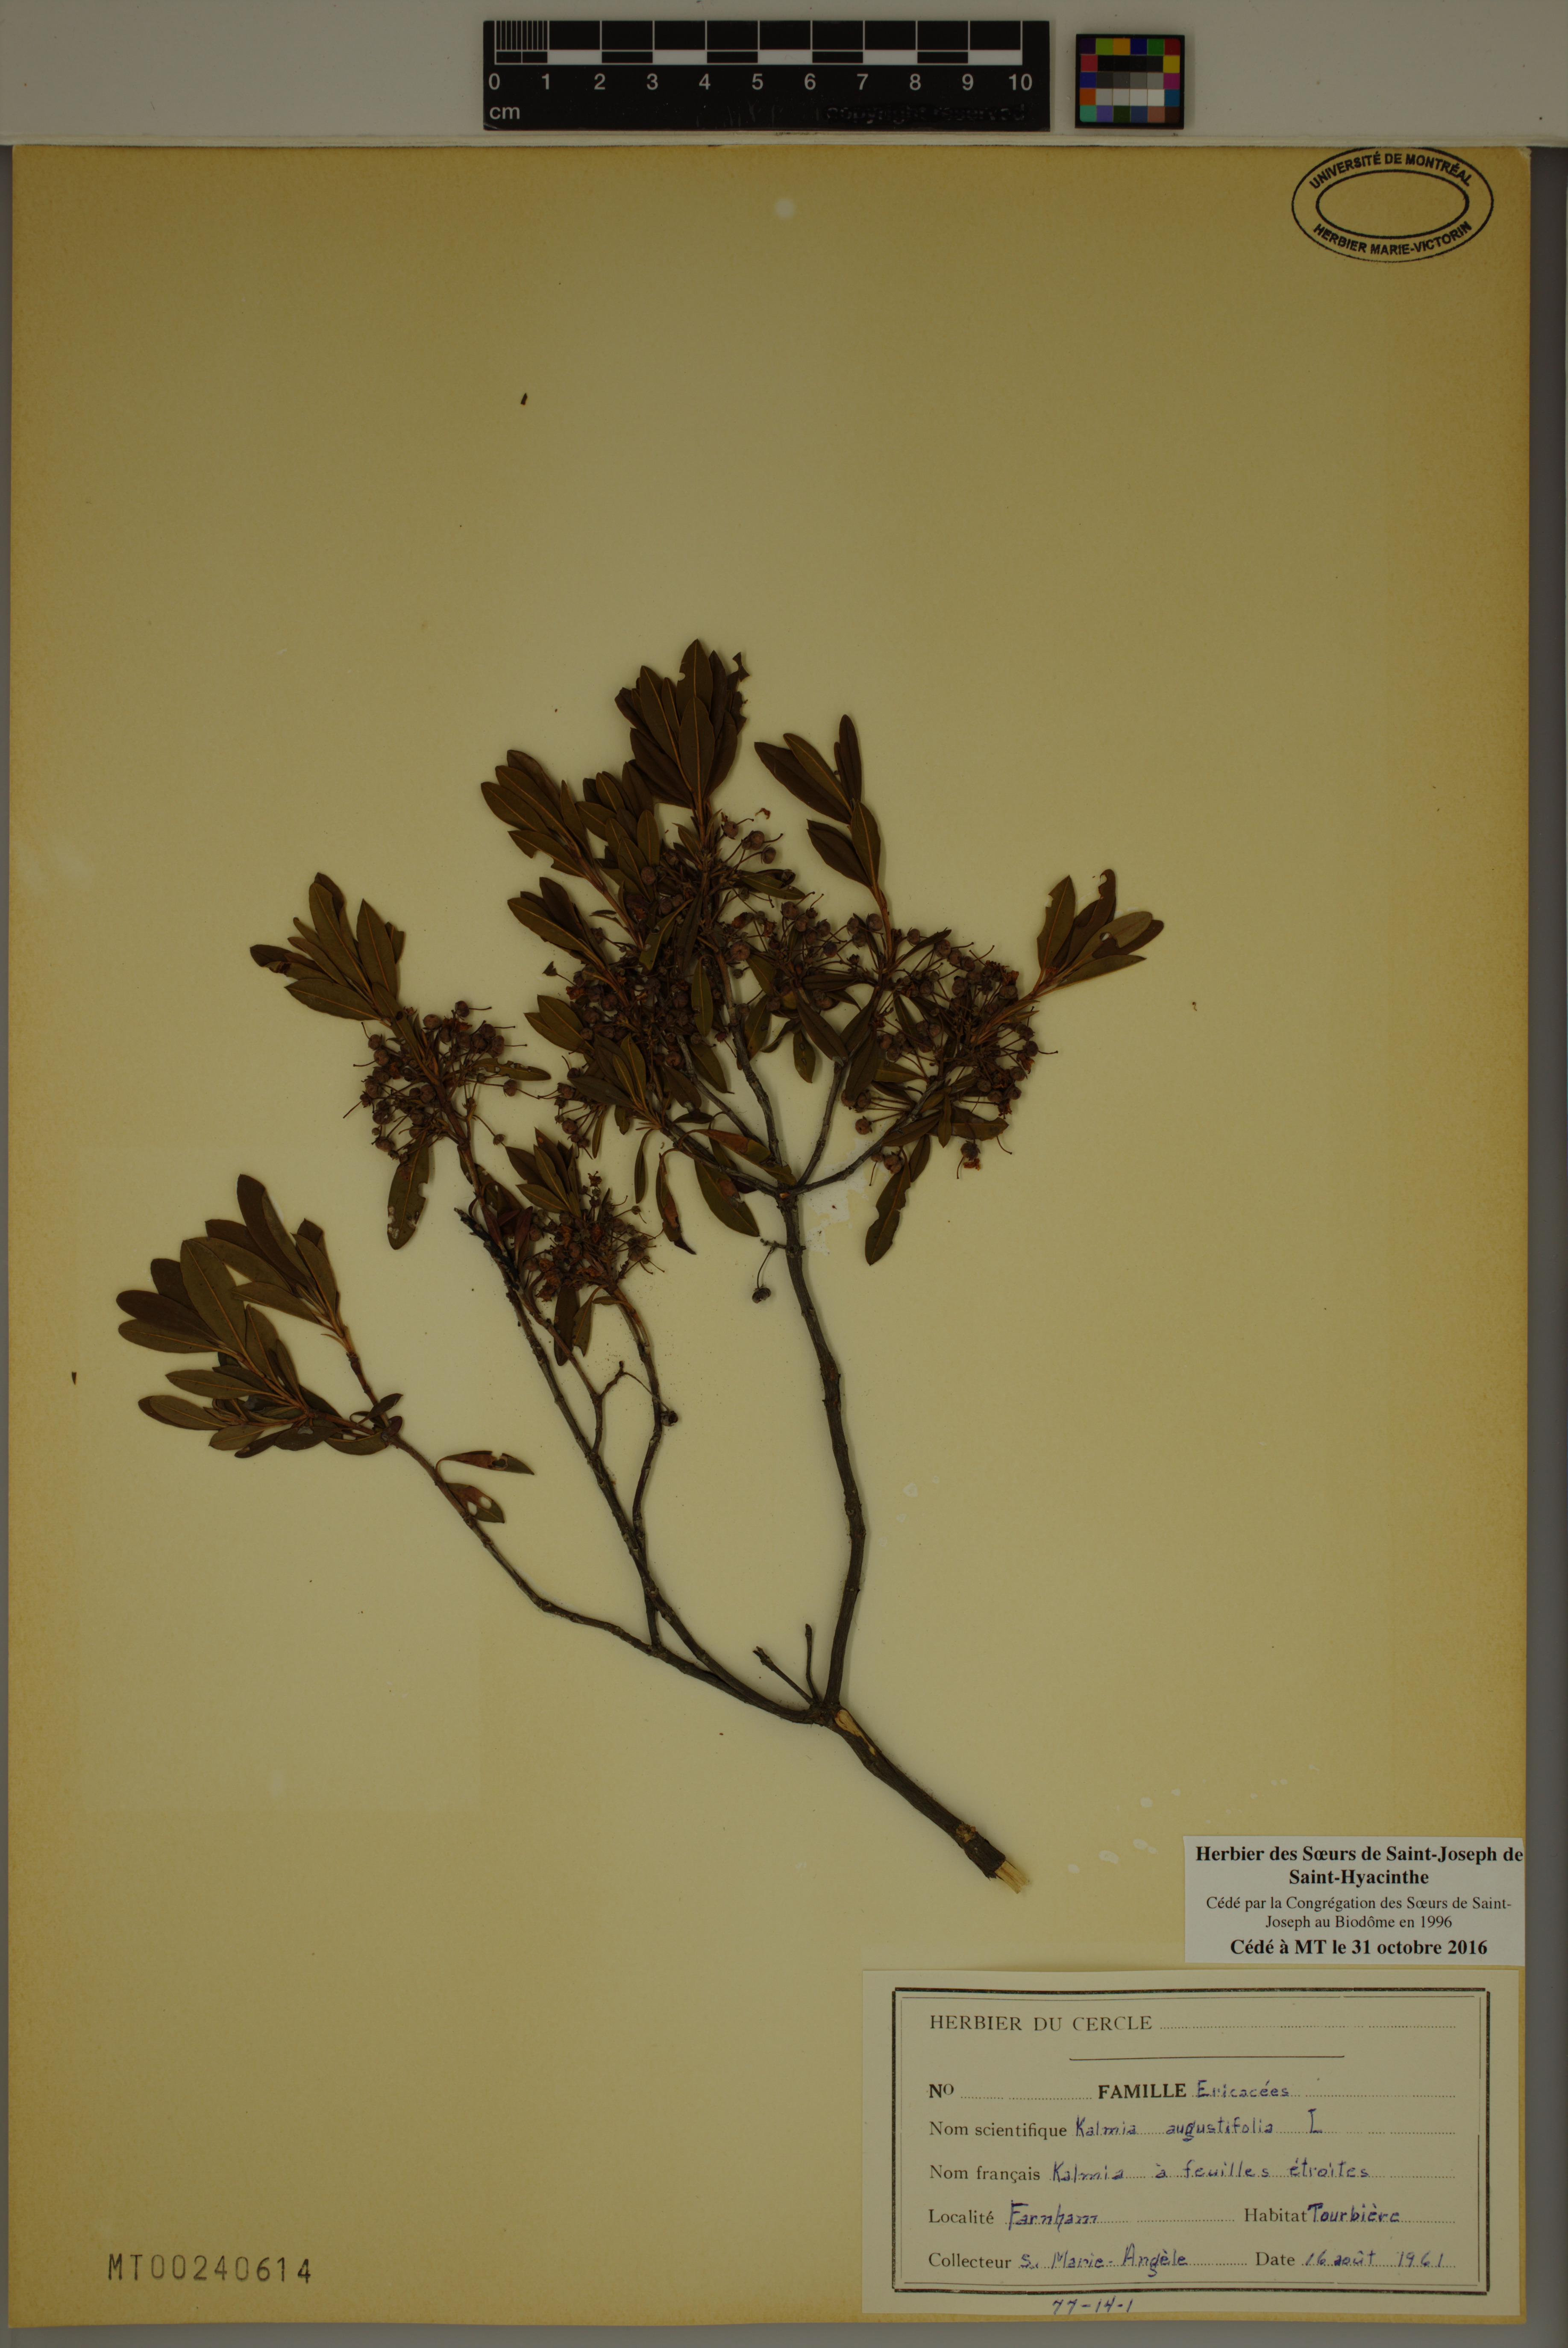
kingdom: Plantae
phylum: Tracheophyta
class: Magnoliopsida
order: Ericales
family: Ericaceae
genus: Kalmia
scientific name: Kalmia angustifolia
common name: Sheep-laurel
